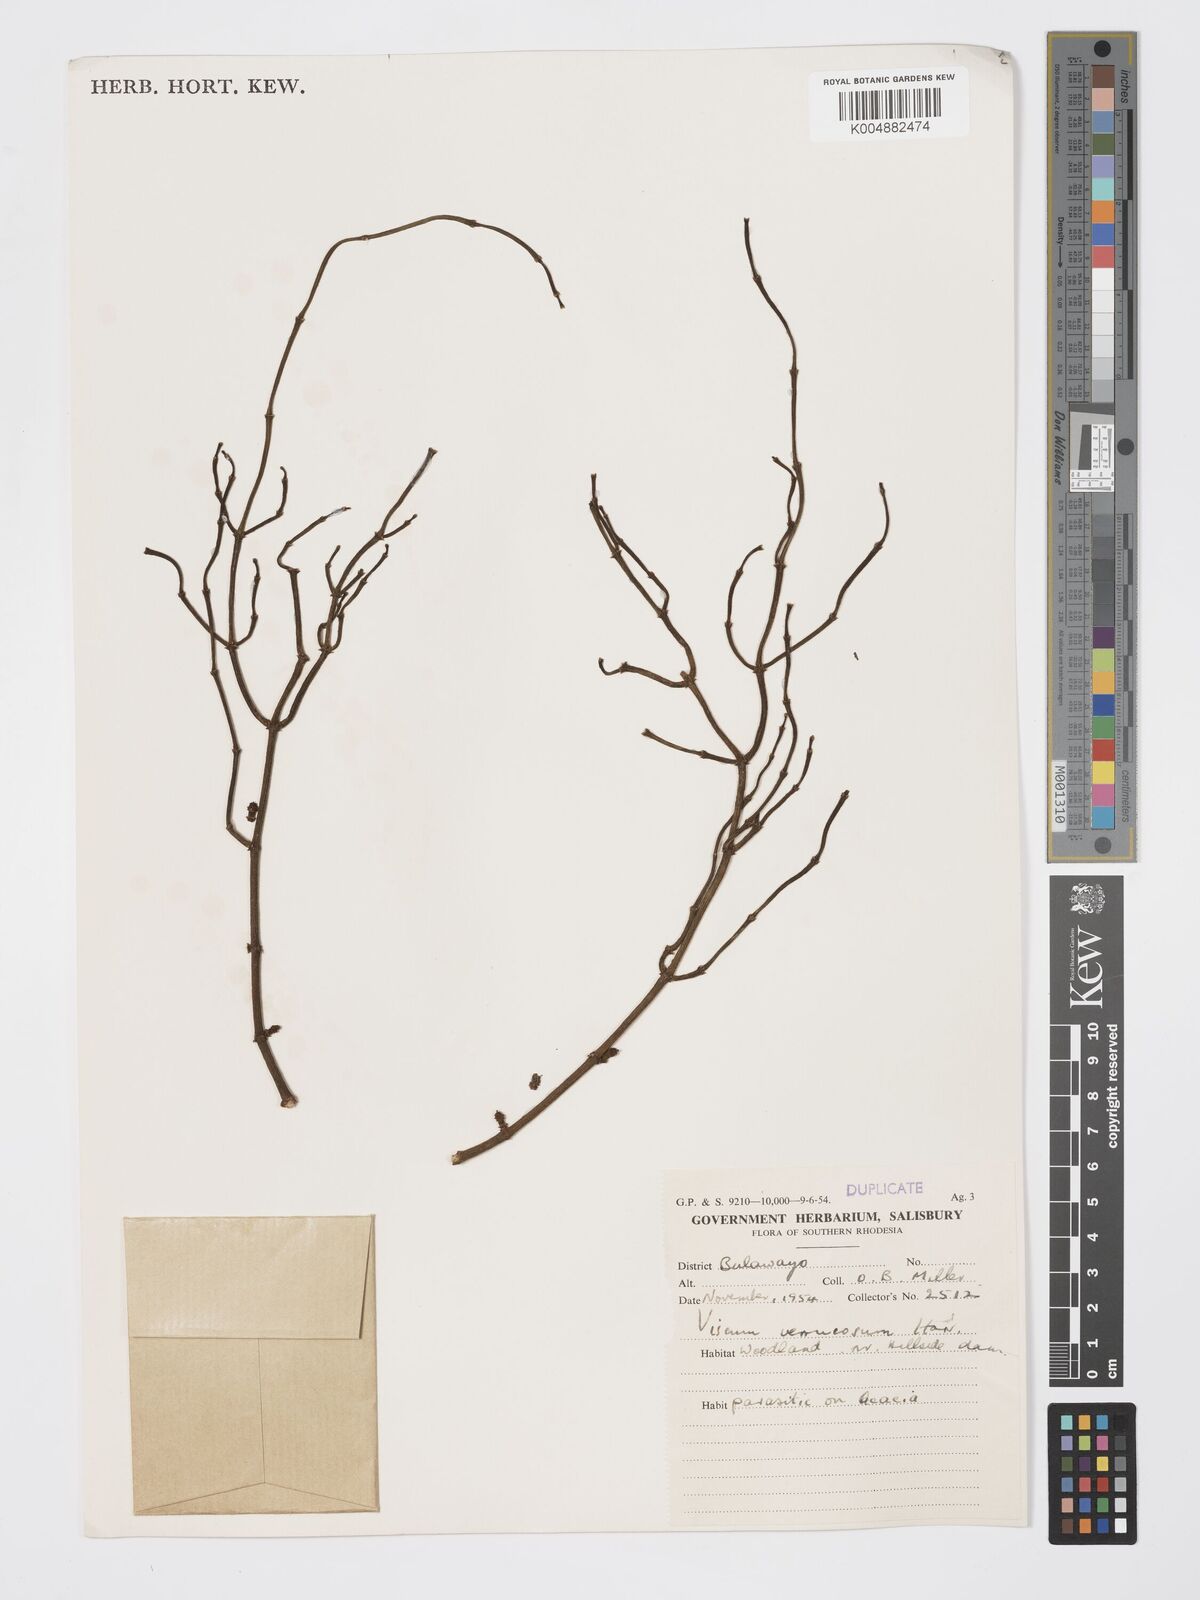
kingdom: Plantae
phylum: Tracheophyta
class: Magnoliopsida
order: Santalales
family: Viscaceae
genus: Viscum
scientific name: Viscum verrucosum
